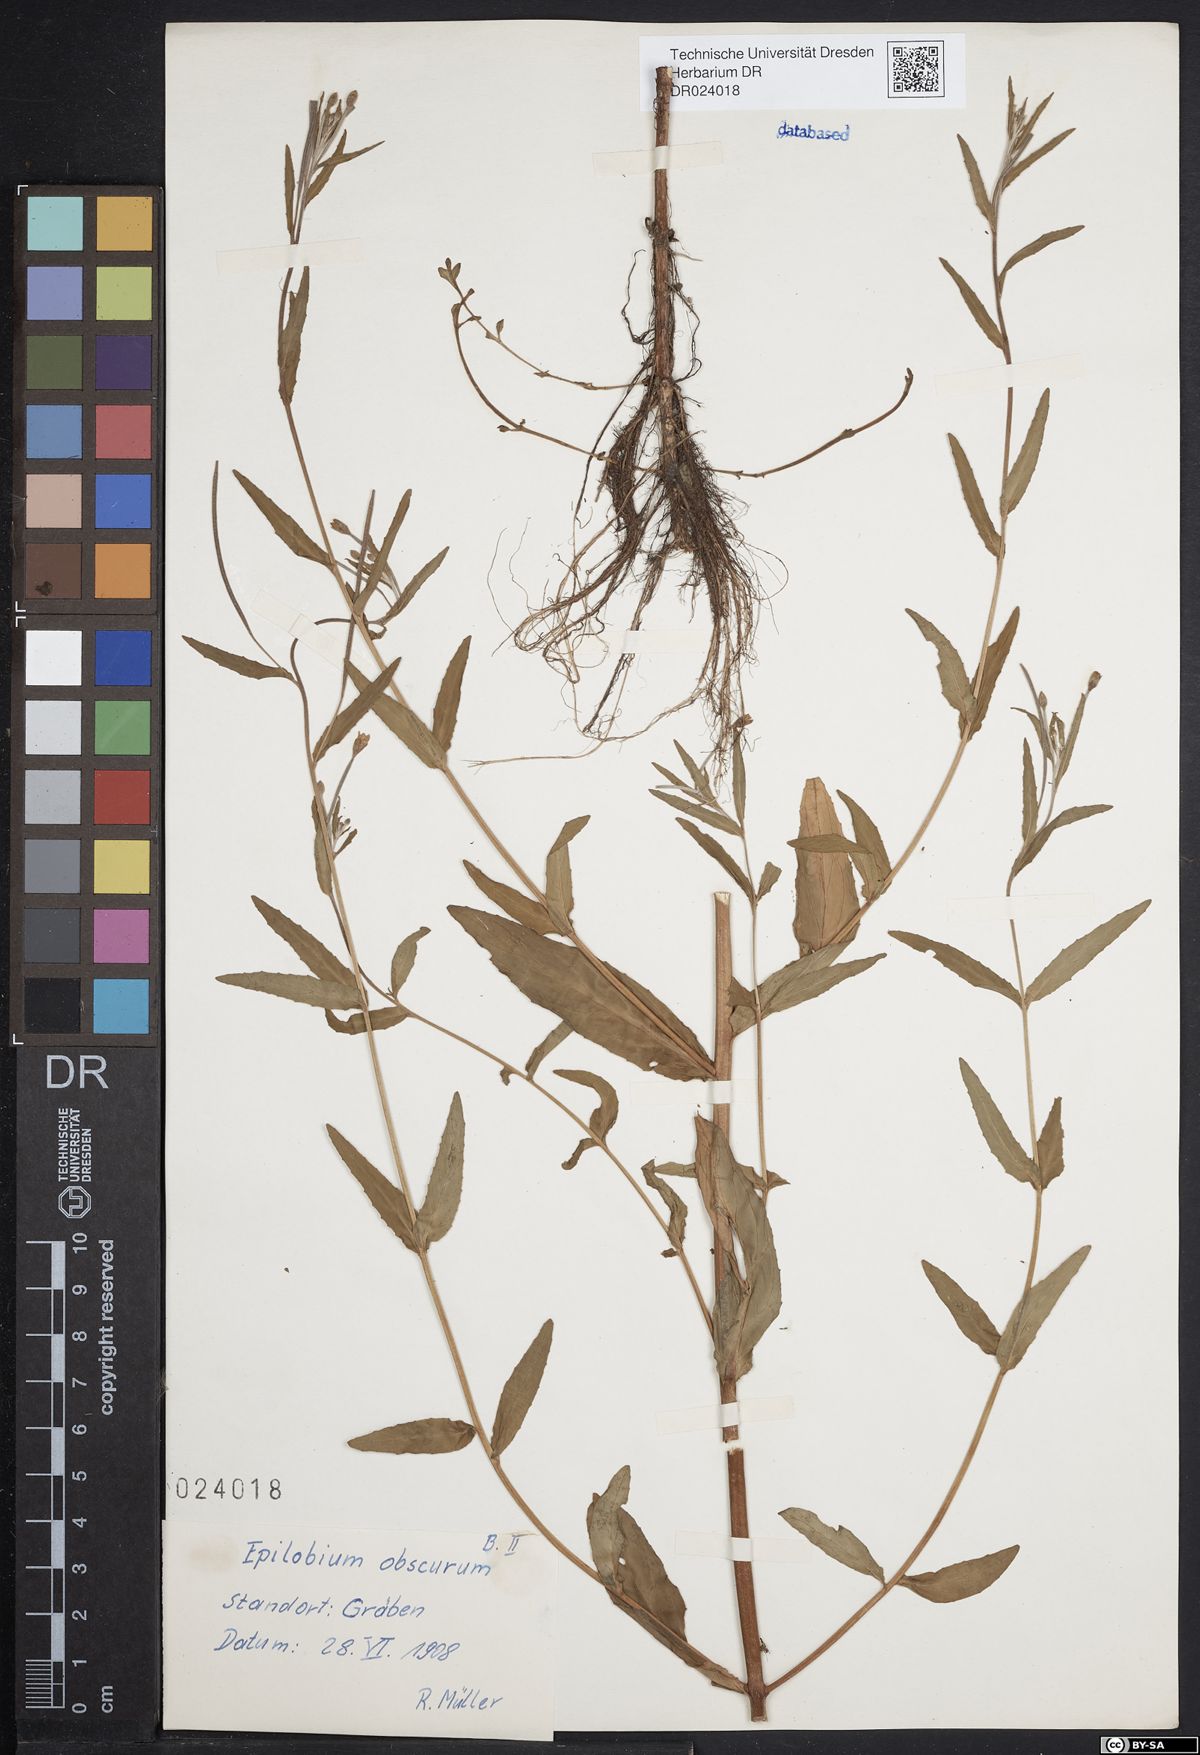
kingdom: Plantae
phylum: Tracheophyta
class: Magnoliopsida
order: Myrtales
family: Onagraceae
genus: Epilobium
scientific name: Epilobium obscurum
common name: Short-fruited willowherb
